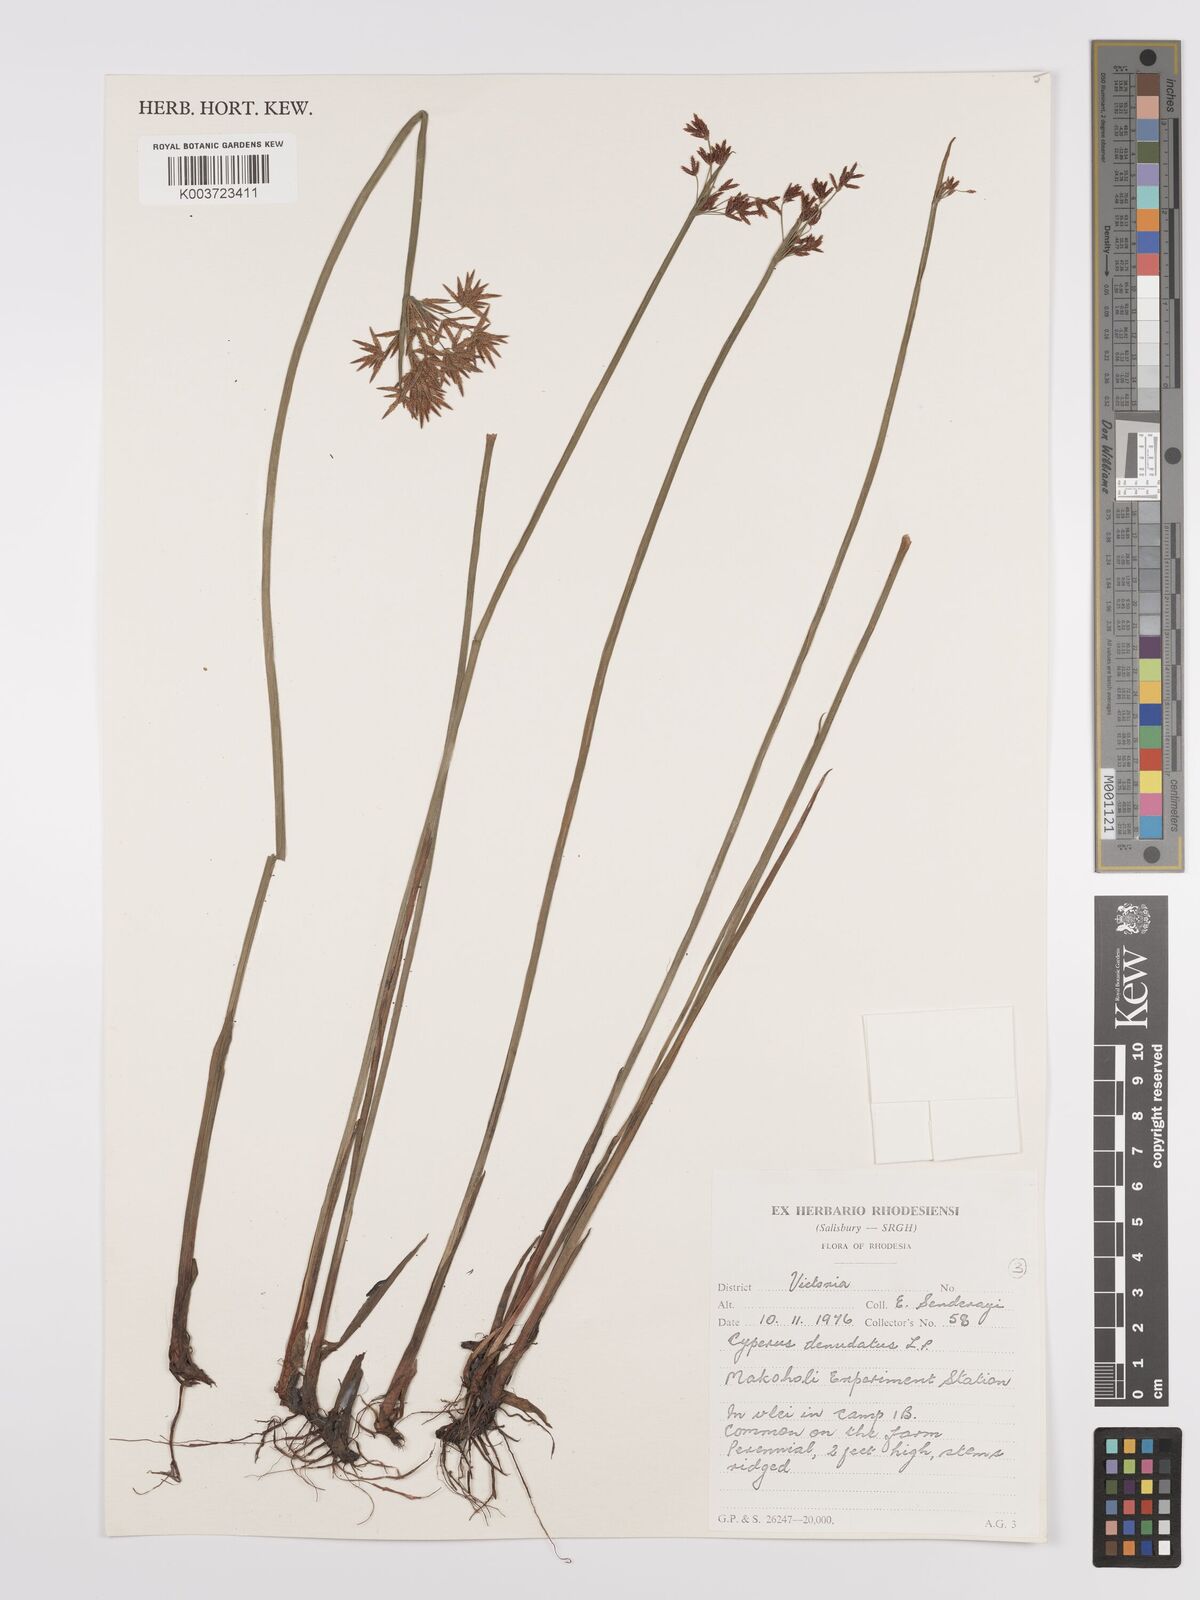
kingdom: Plantae
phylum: Tracheophyta
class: Liliopsida
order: Poales
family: Cyperaceae
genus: Cyperus
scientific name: Cyperus denudatus
